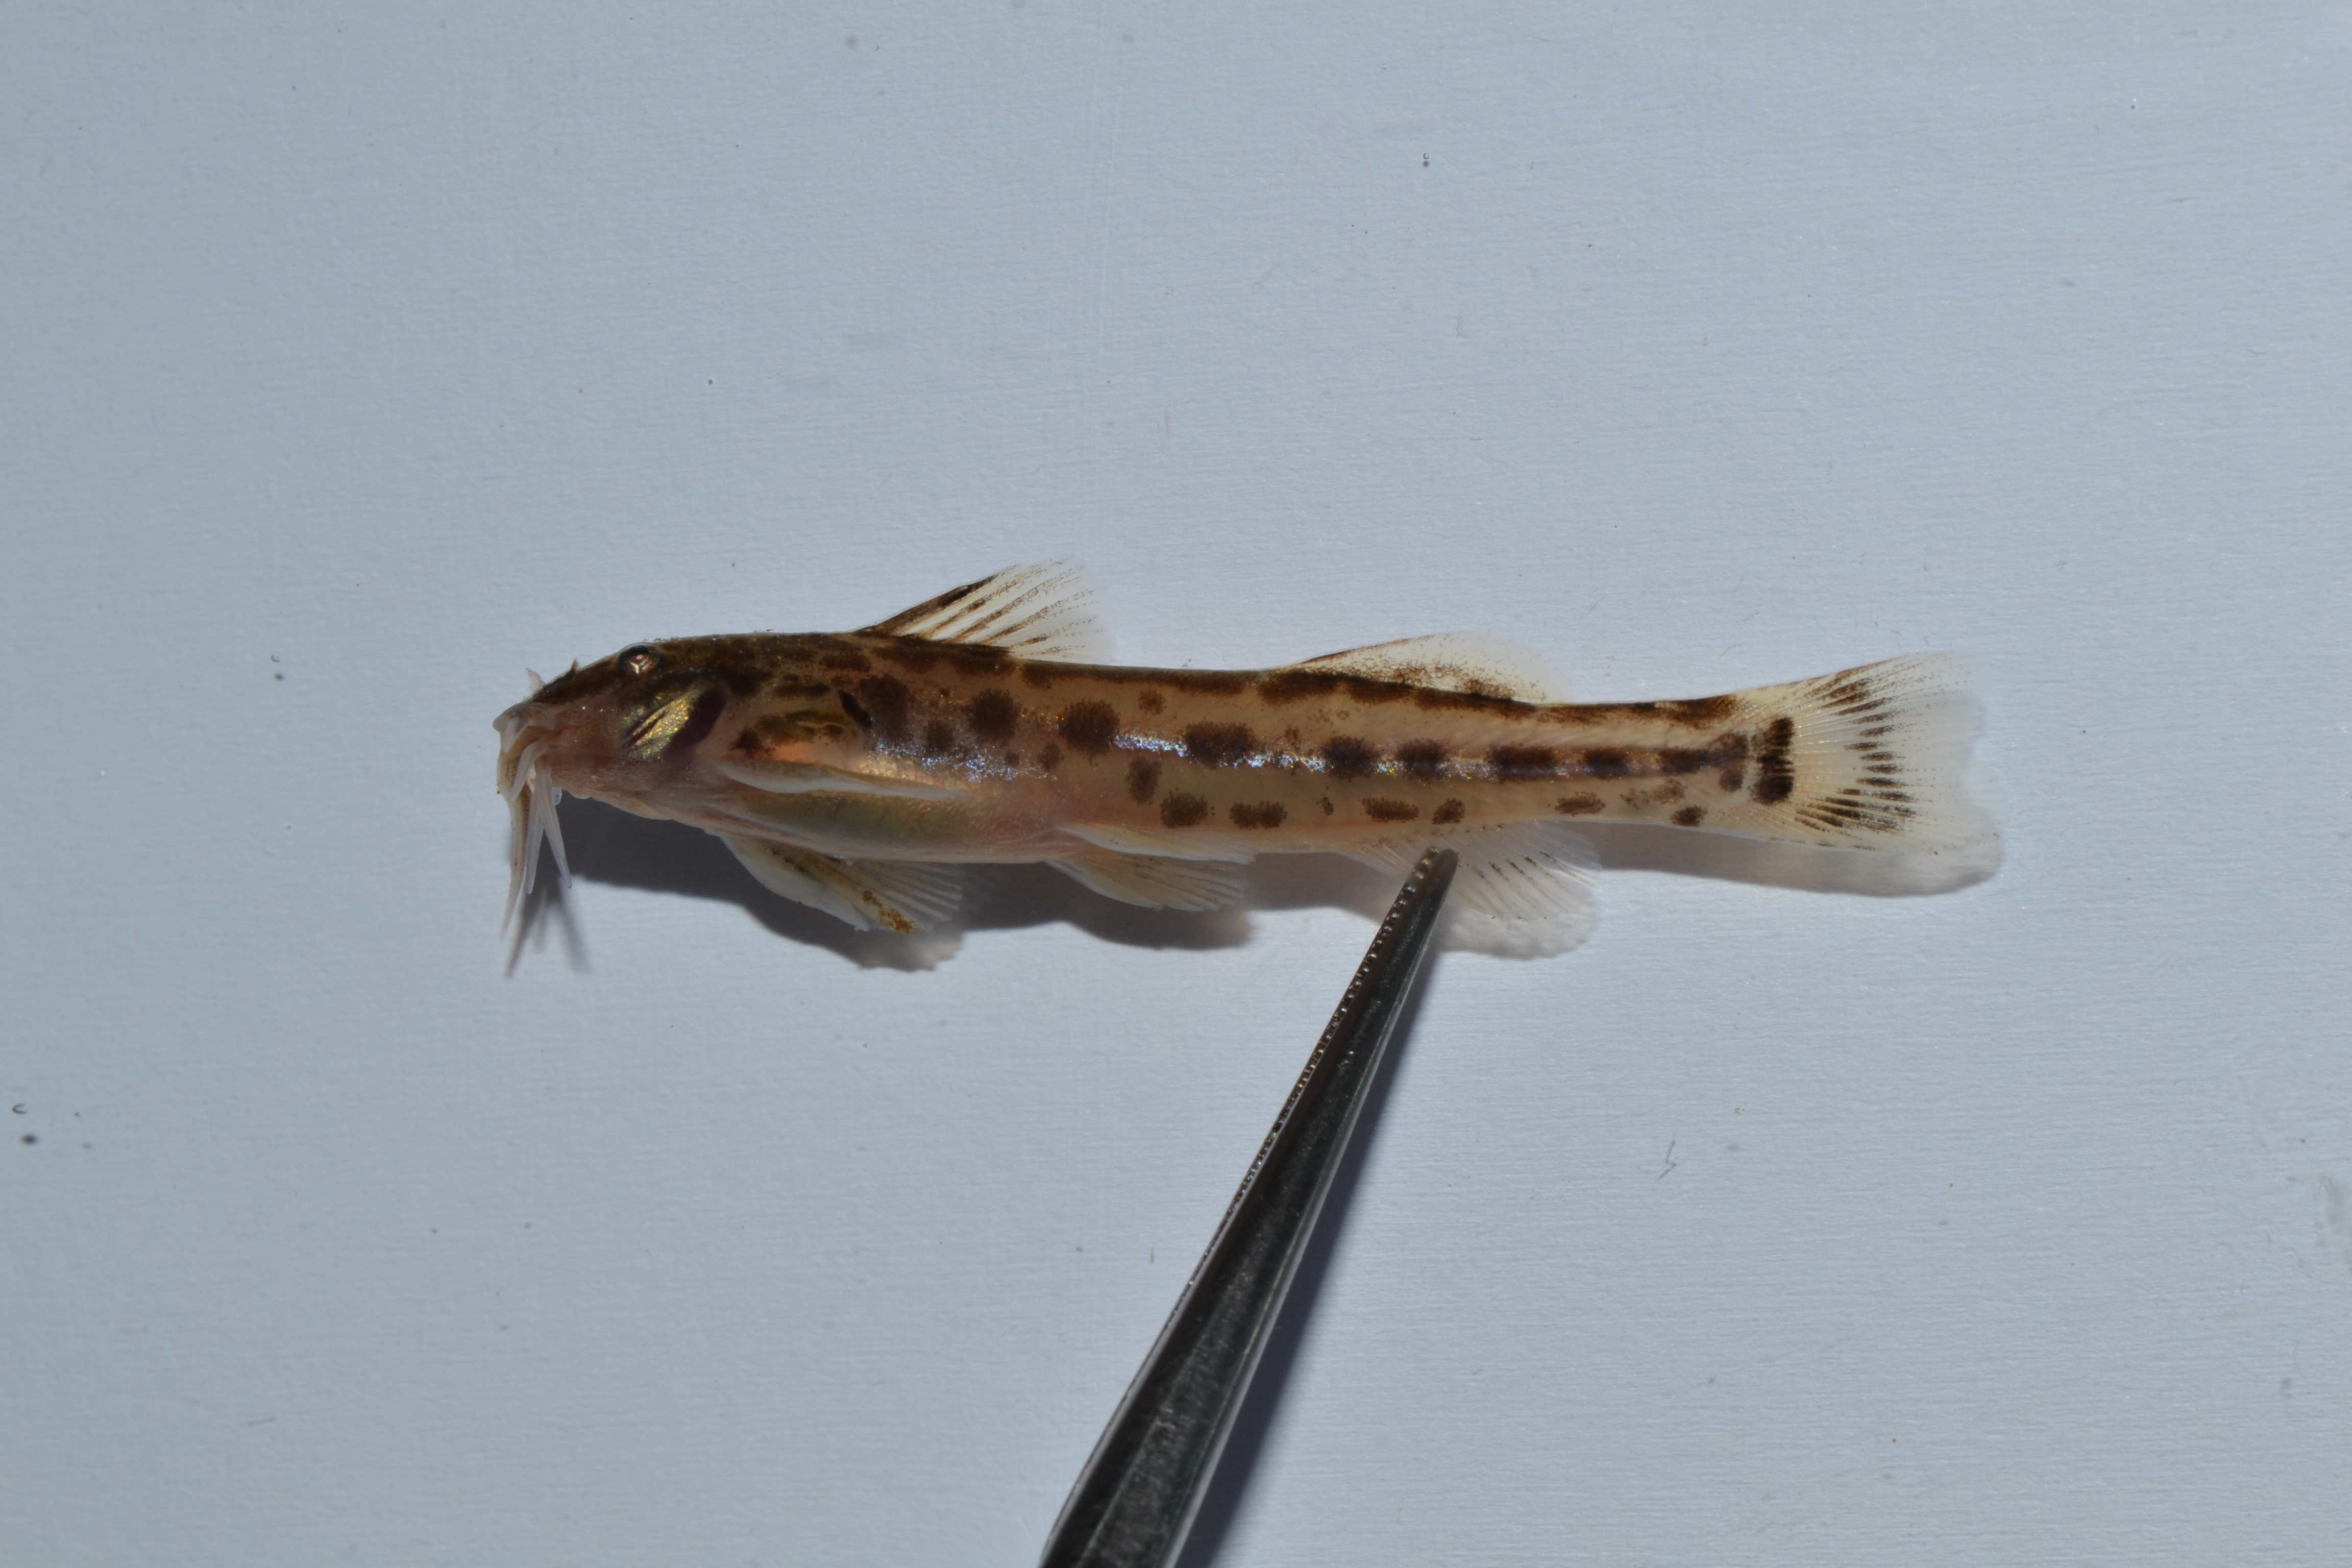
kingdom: Animalia
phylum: Chordata
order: Siluriformes
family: Amphiliidae
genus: Zaireichthys
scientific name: Zaireichthys
